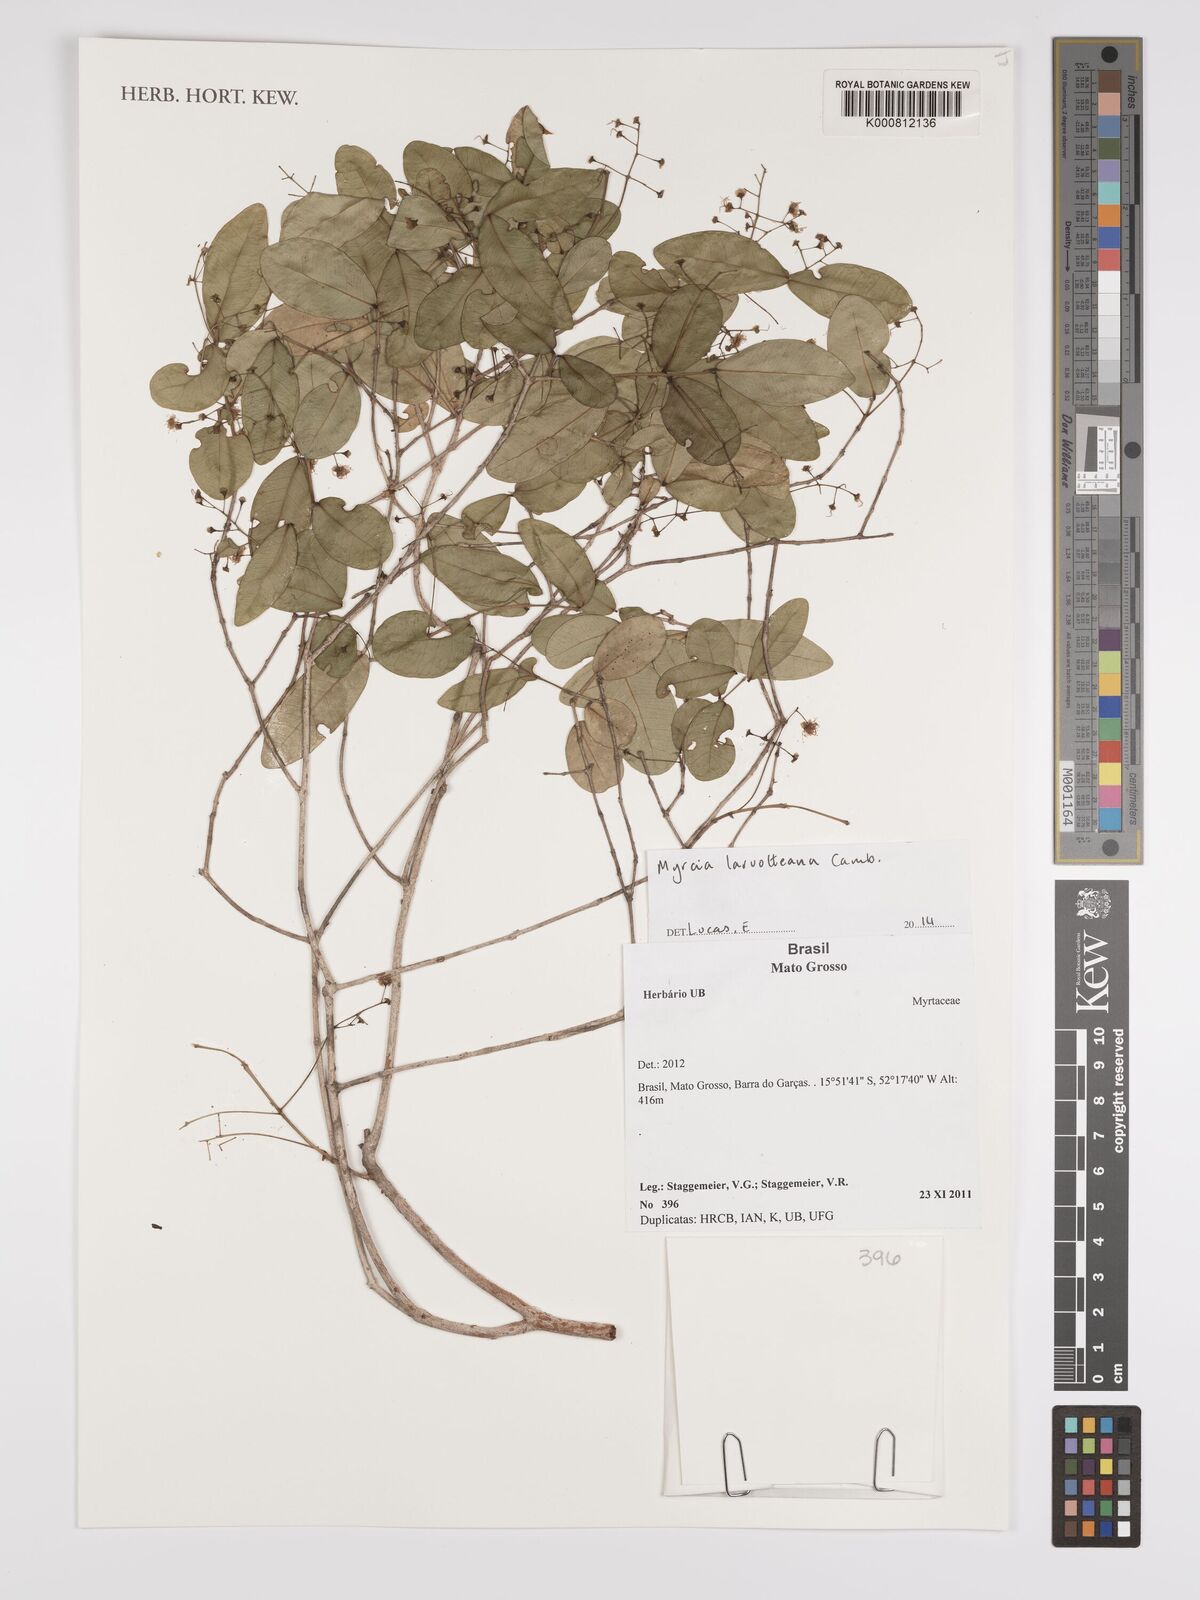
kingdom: Plantae
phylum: Tracheophyta
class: Magnoliopsida
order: Myrtales
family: Myrtaceae
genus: Myrcia
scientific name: Myrcia laruotteana
